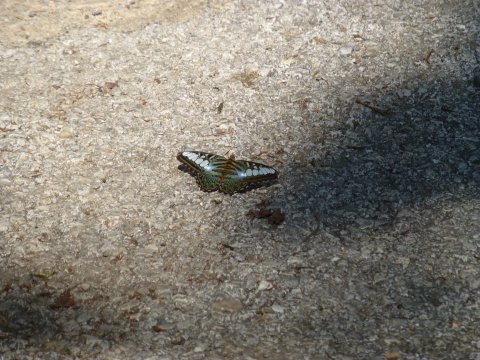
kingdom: Animalia
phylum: Arthropoda
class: Insecta
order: Lepidoptera
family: Nymphalidae
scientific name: Nymphalidae
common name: Brushfoots
